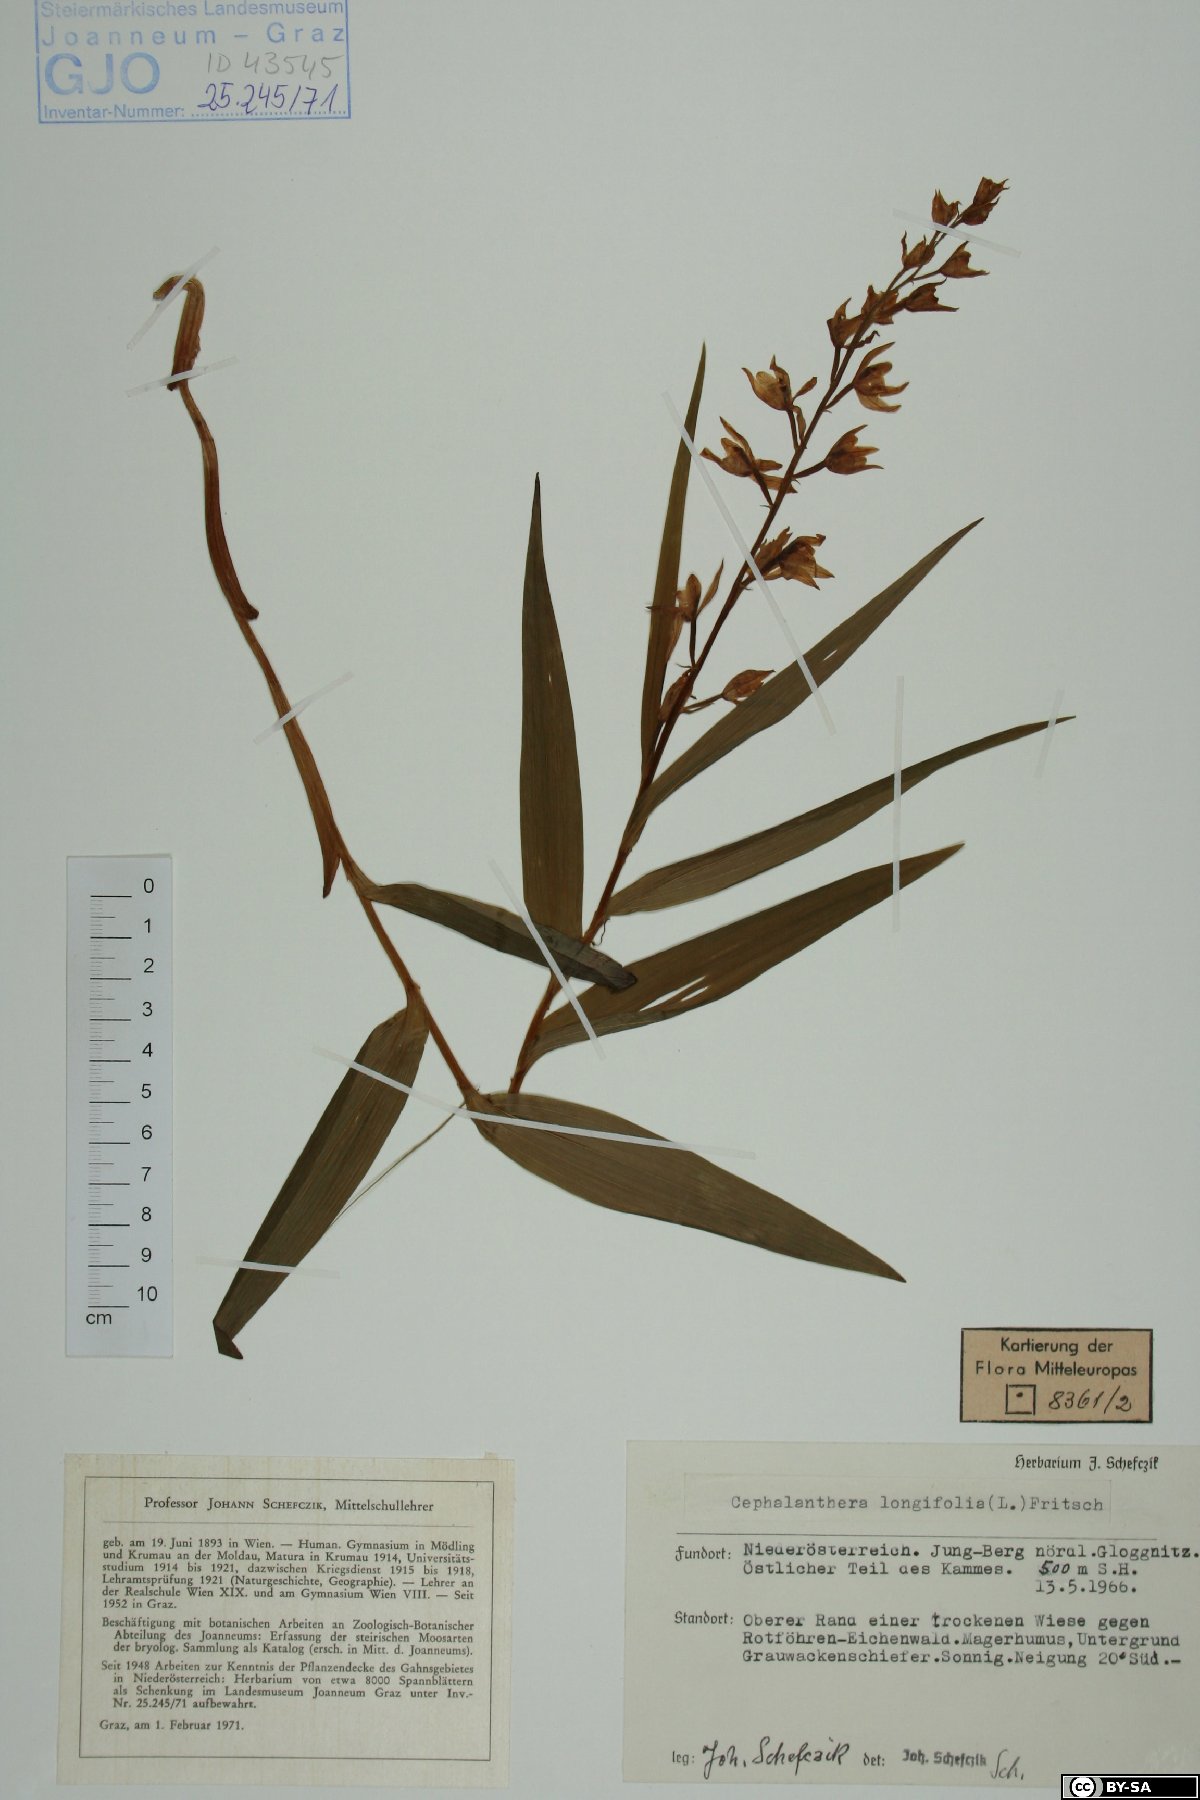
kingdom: Plantae
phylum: Tracheophyta
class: Liliopsida
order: Asparagales
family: Orchidaceae
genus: Cephalanthera
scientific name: Cephalanthera longifolia
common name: Narrow-leaved helleborine
